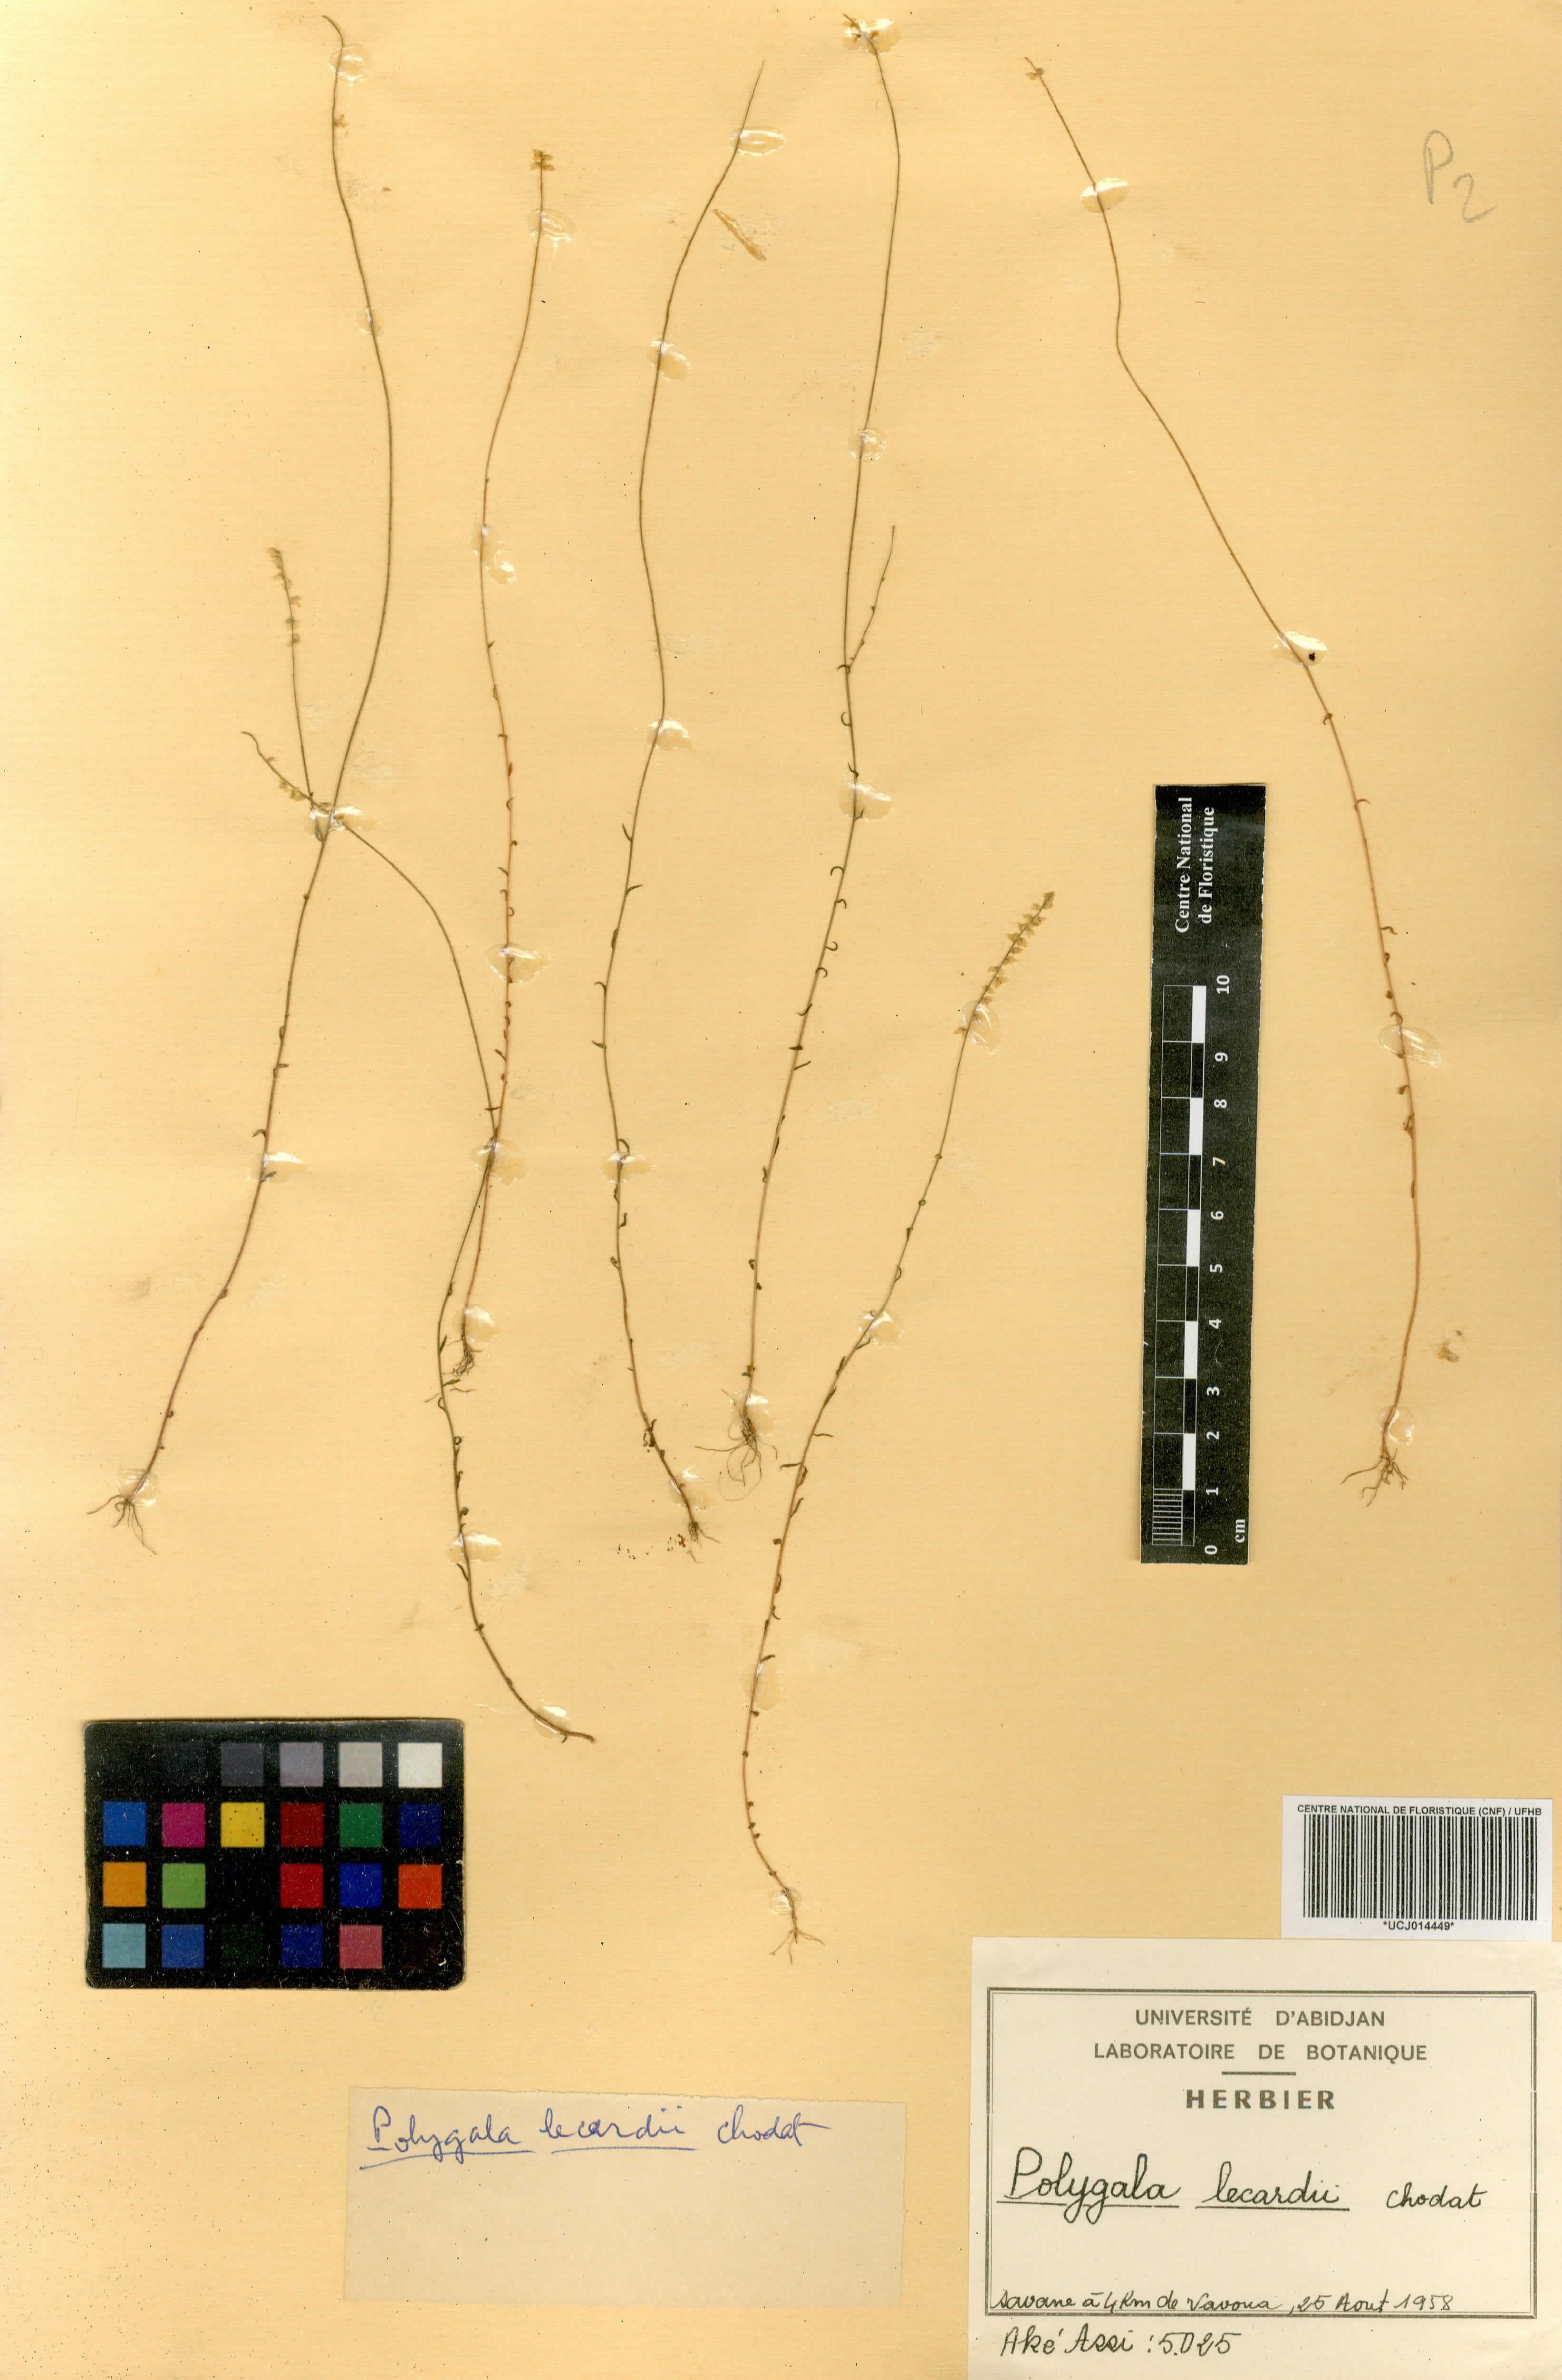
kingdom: Plantae
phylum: Tracheophyta
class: Magnoliopsida
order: Fabales
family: Polygalaceae
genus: Polygala
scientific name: Polygala lecardii
